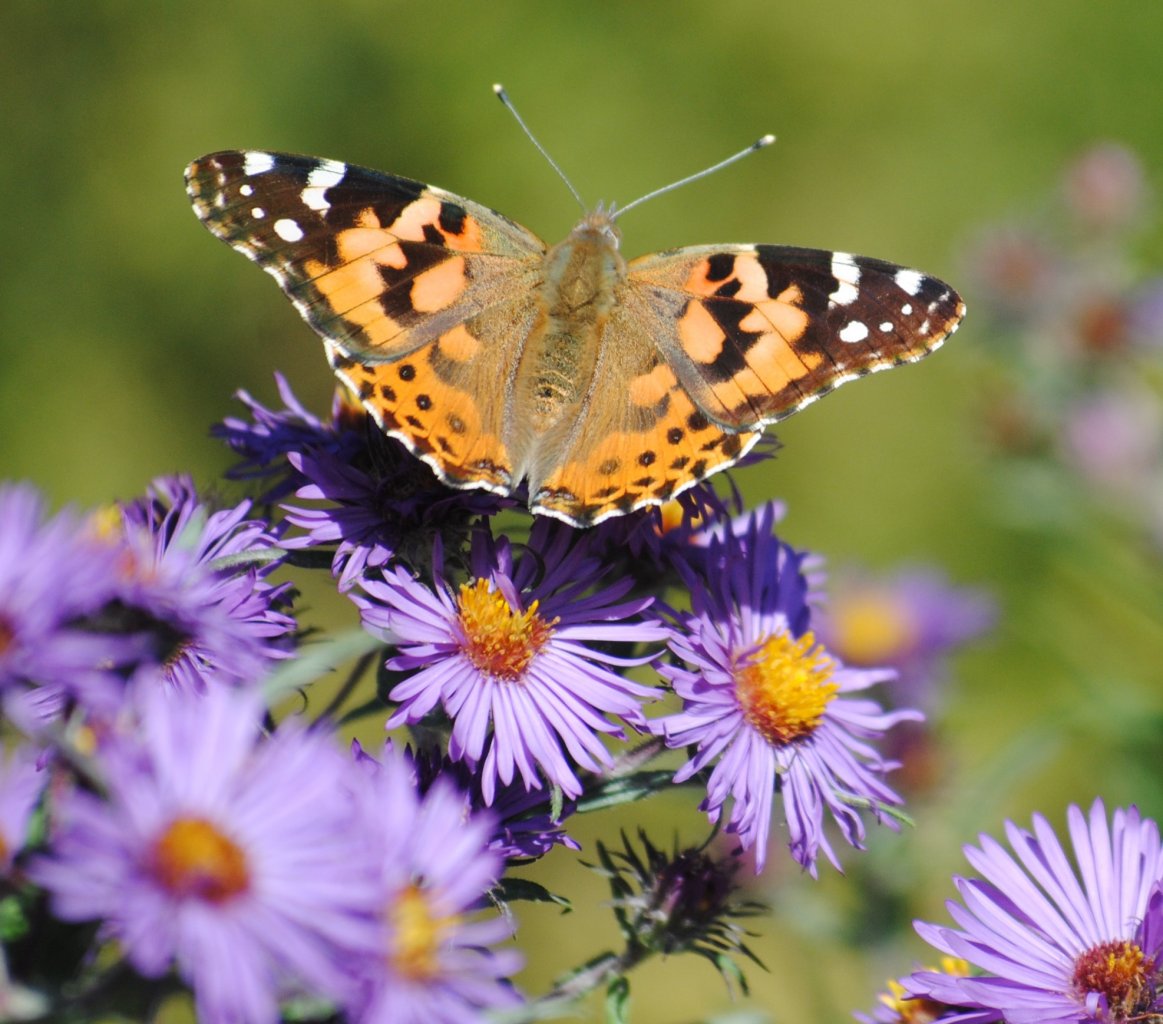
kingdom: Animalia
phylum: Arthropoda
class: Insecta
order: Lepidoptera
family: Nymphalidae
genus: Vanessa
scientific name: Vanessa cardui
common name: Painted Lady
